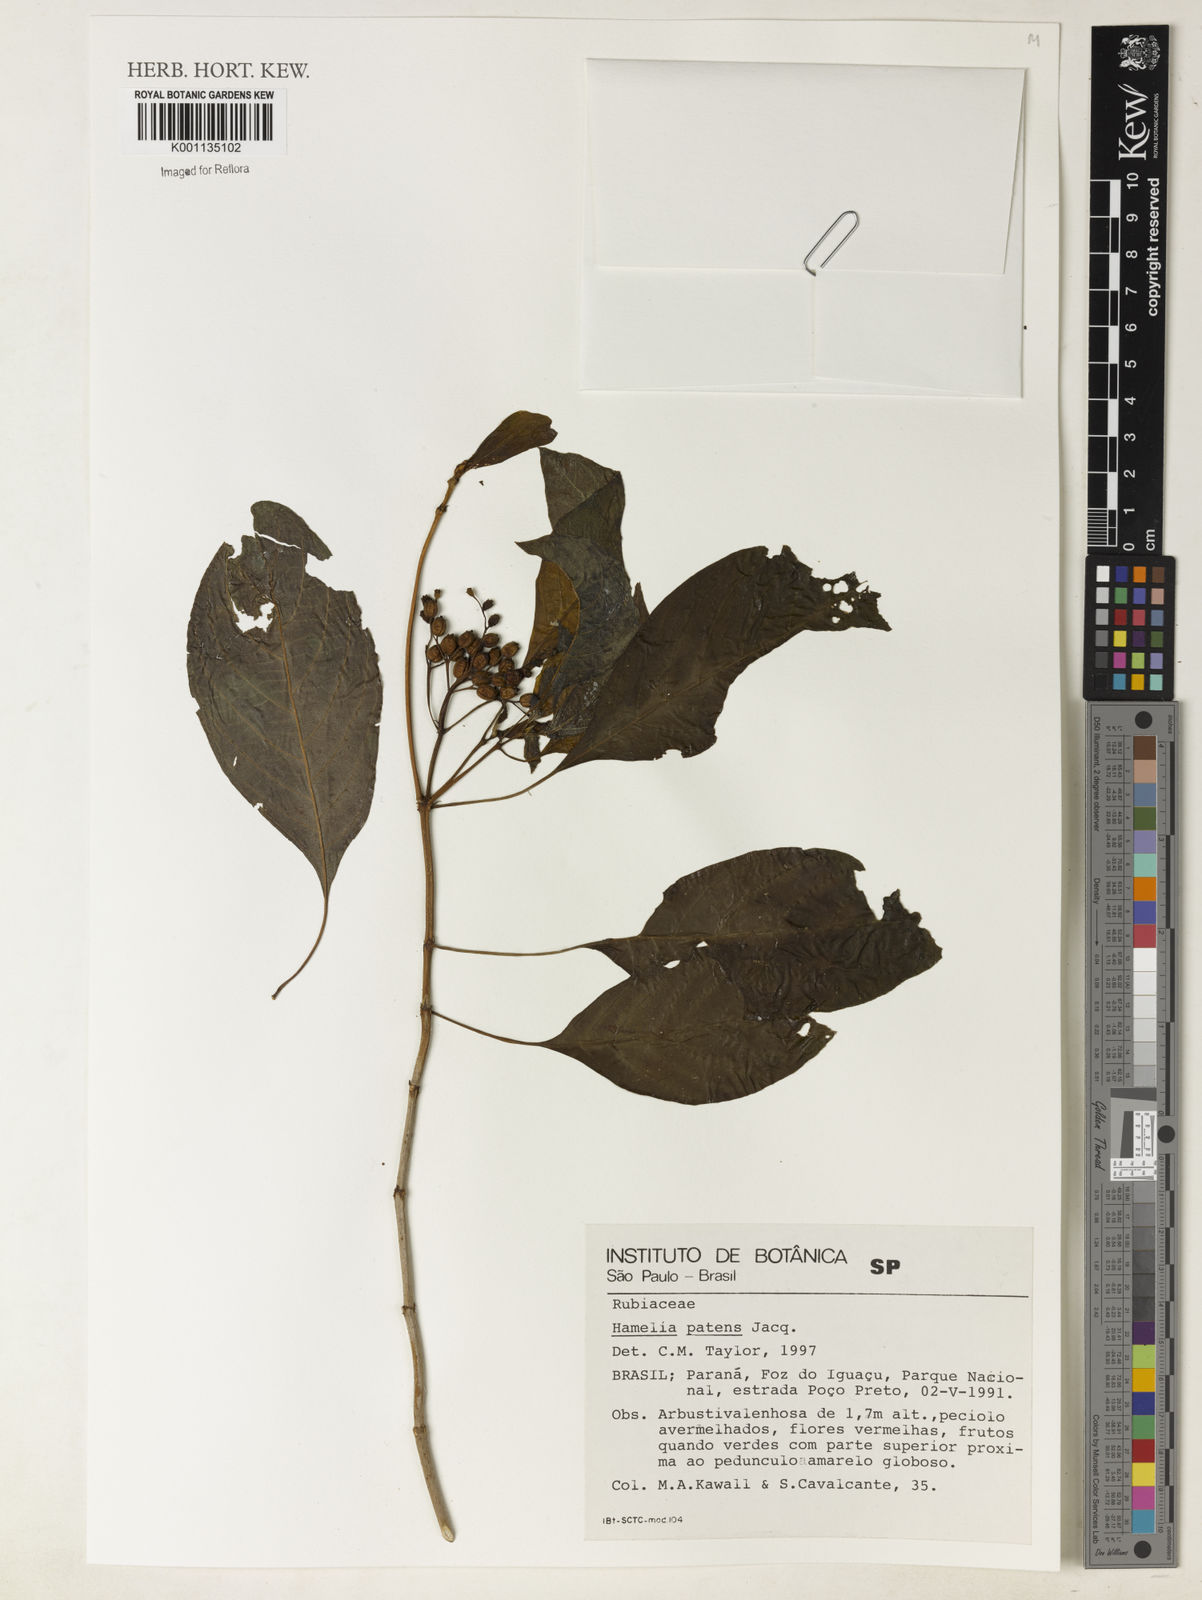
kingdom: Plantae
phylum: Tracheophyta
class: Magnoliopsida
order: Gentianales
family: Rubiaceae
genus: Hamelia
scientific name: Hamelia patens
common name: Redhead
